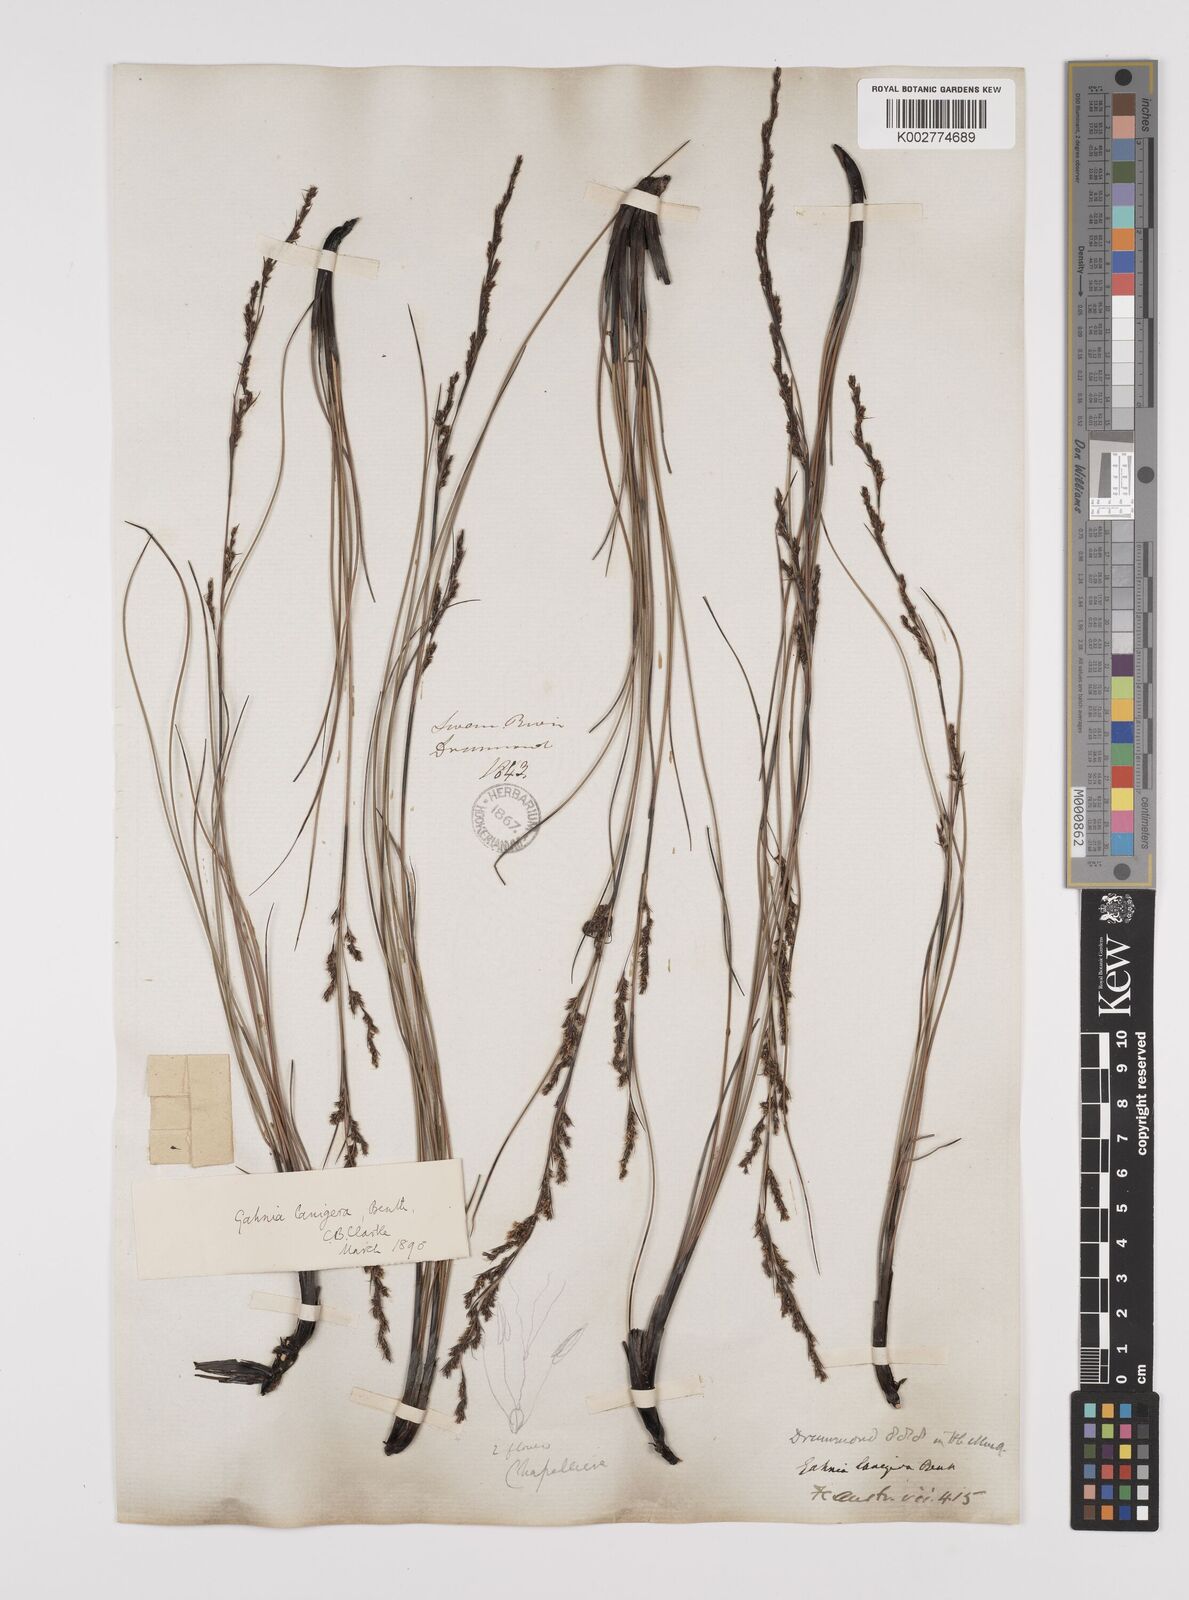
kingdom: Plantae
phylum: Tracheophyta
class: Liliopsida
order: Poales
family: Cyperaceae
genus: Gahnia
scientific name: Gahnia lanigera
